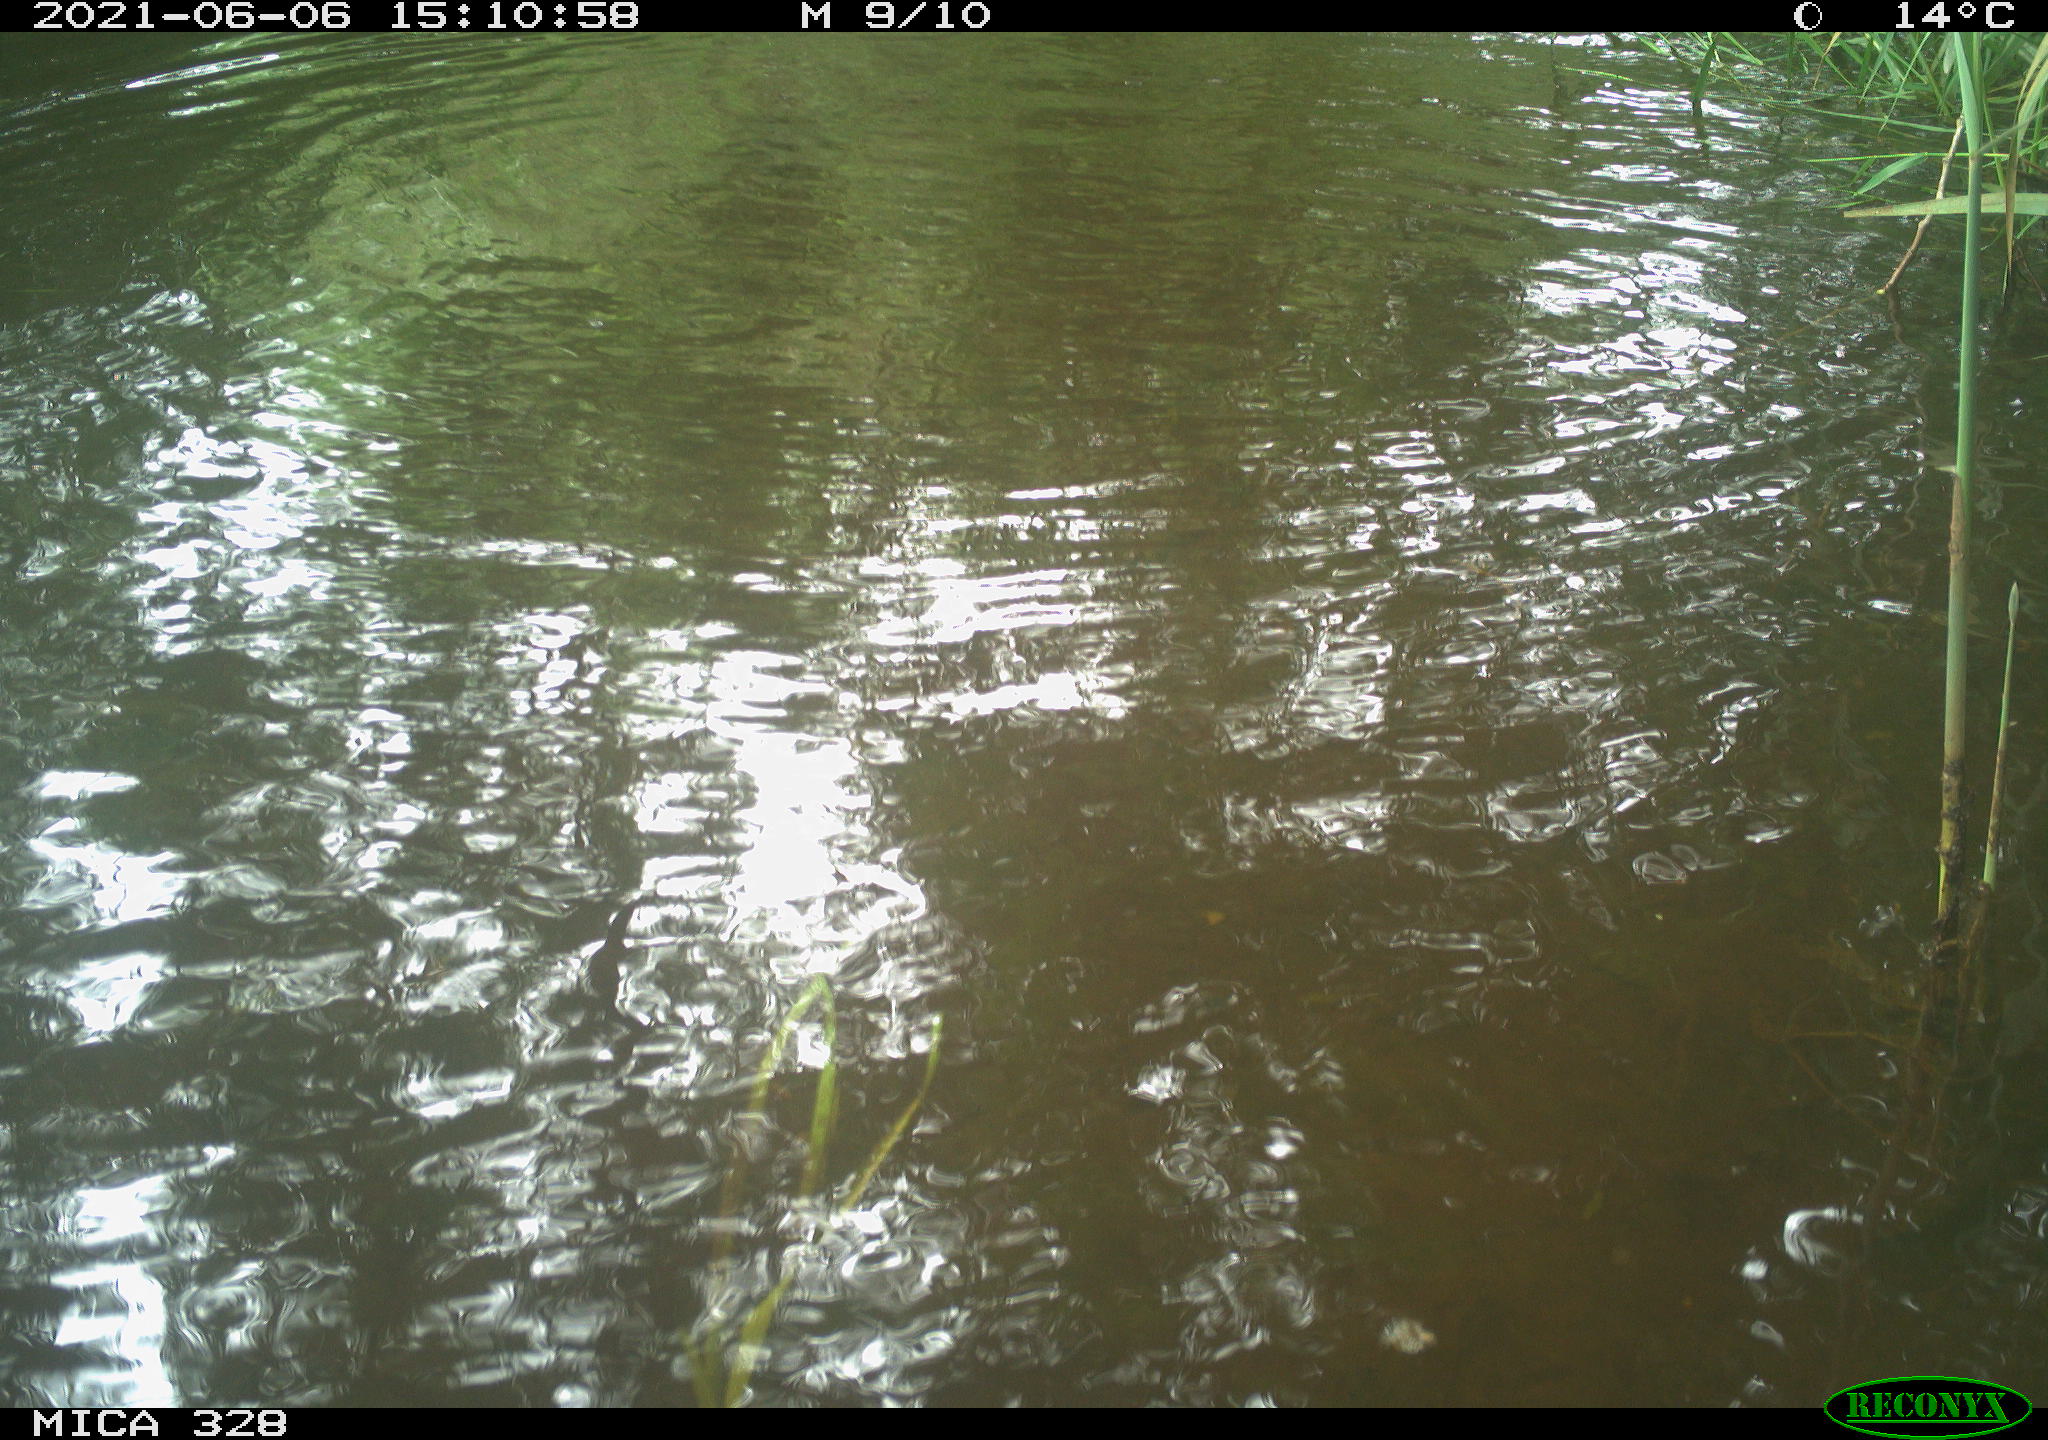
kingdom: Animalia
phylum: Chordata
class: Mammalia
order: Rodentia
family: Cricetidae
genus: Ondatra
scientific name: Ondatra zibethicus
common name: Muskrat
